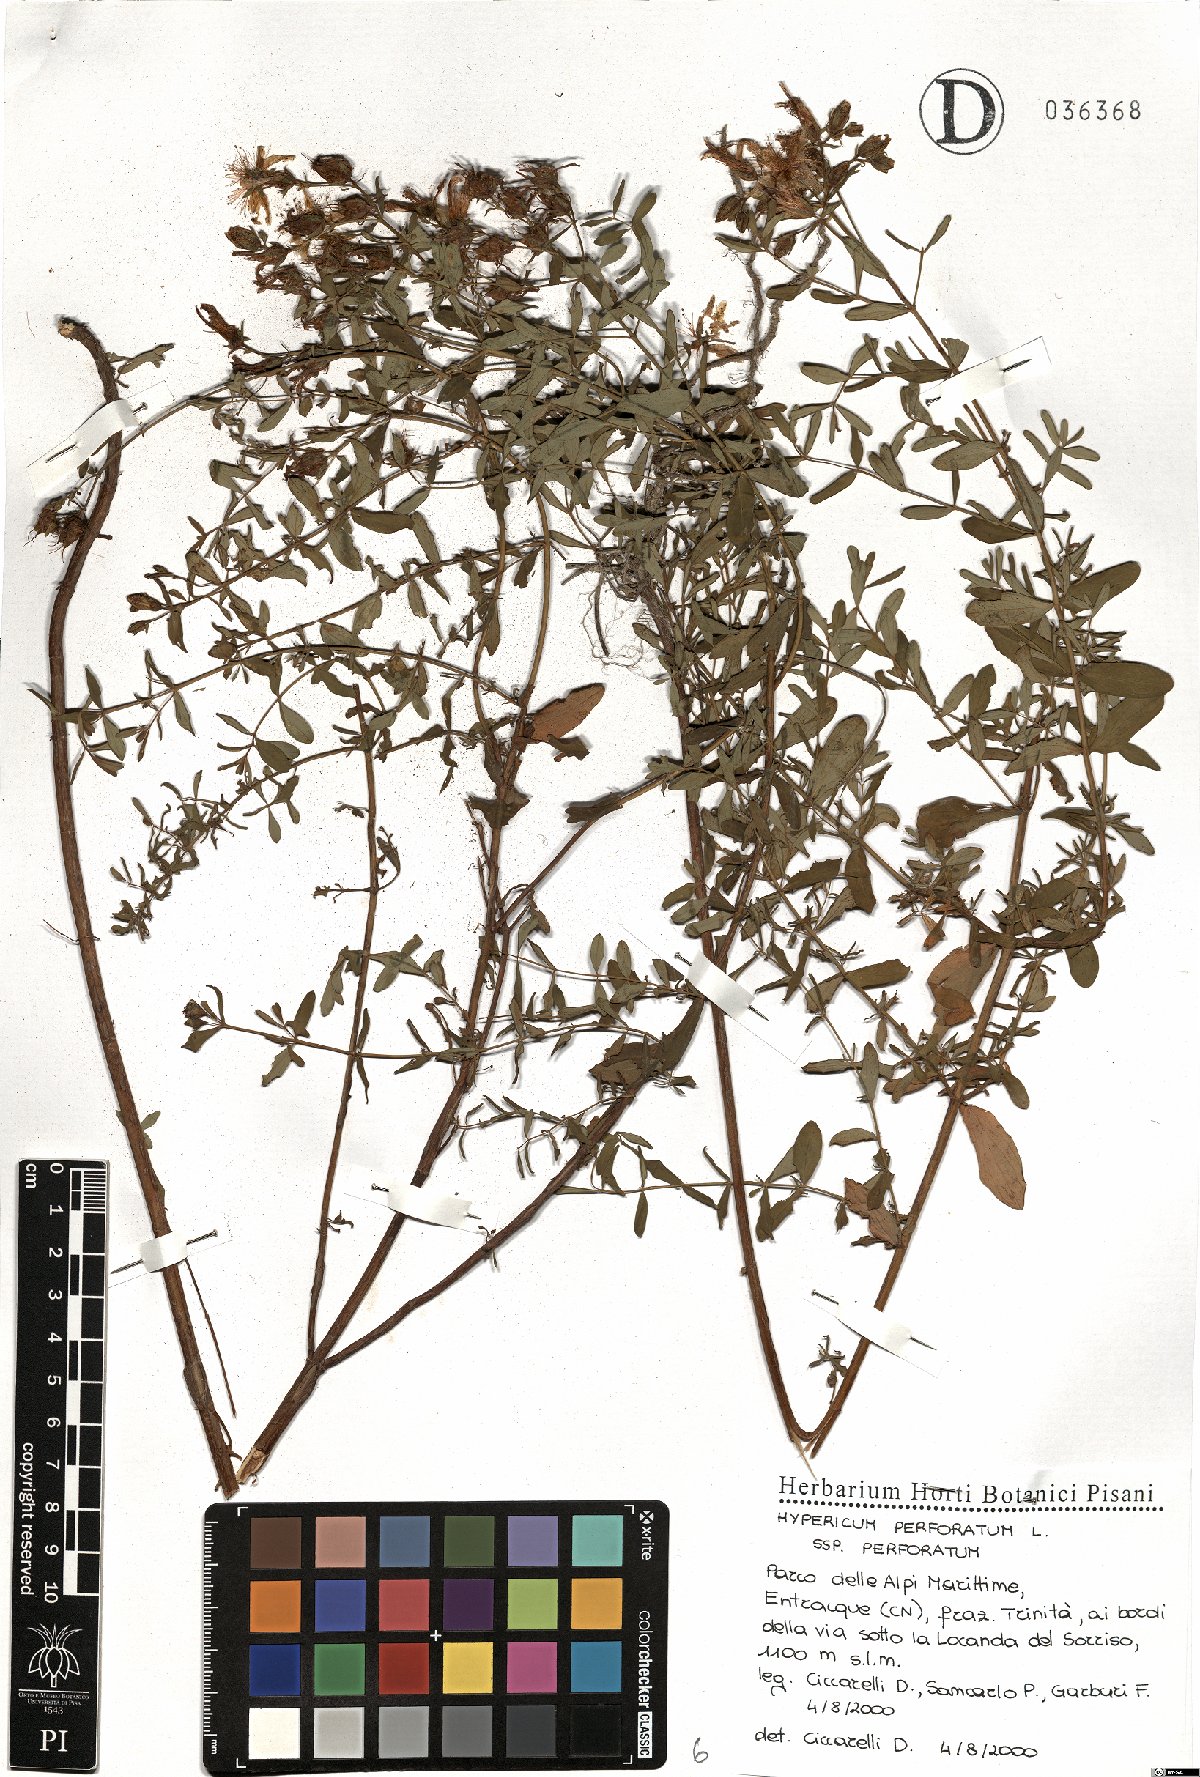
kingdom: Plantae
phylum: Tracheophyta
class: Magnoliopsida
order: Malpighiales
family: Hypericaceae
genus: Hypericum
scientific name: Hypericum perforatum
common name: Common st. johnswort
